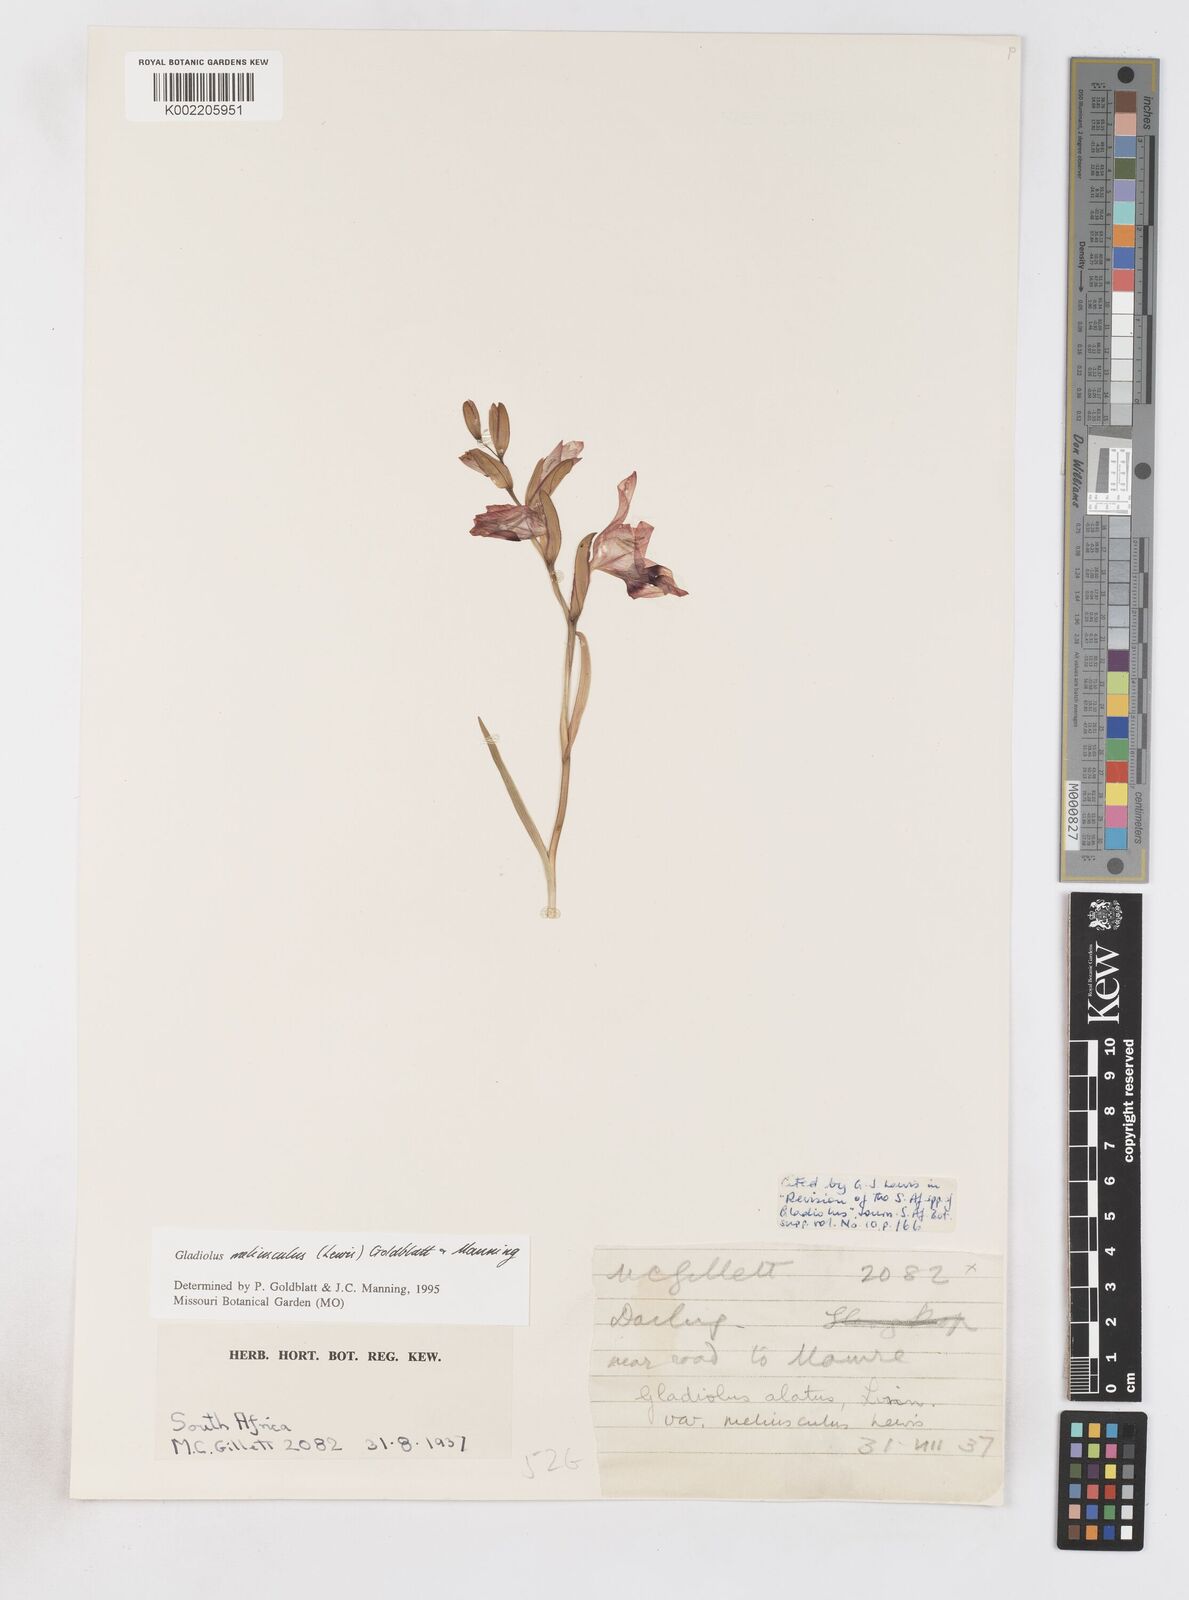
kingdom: Plantae
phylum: Tracheophyta
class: Liliopsida
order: Asparagales
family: Iridaceae
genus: Gladiolus
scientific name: Gladiolus meliusculus
